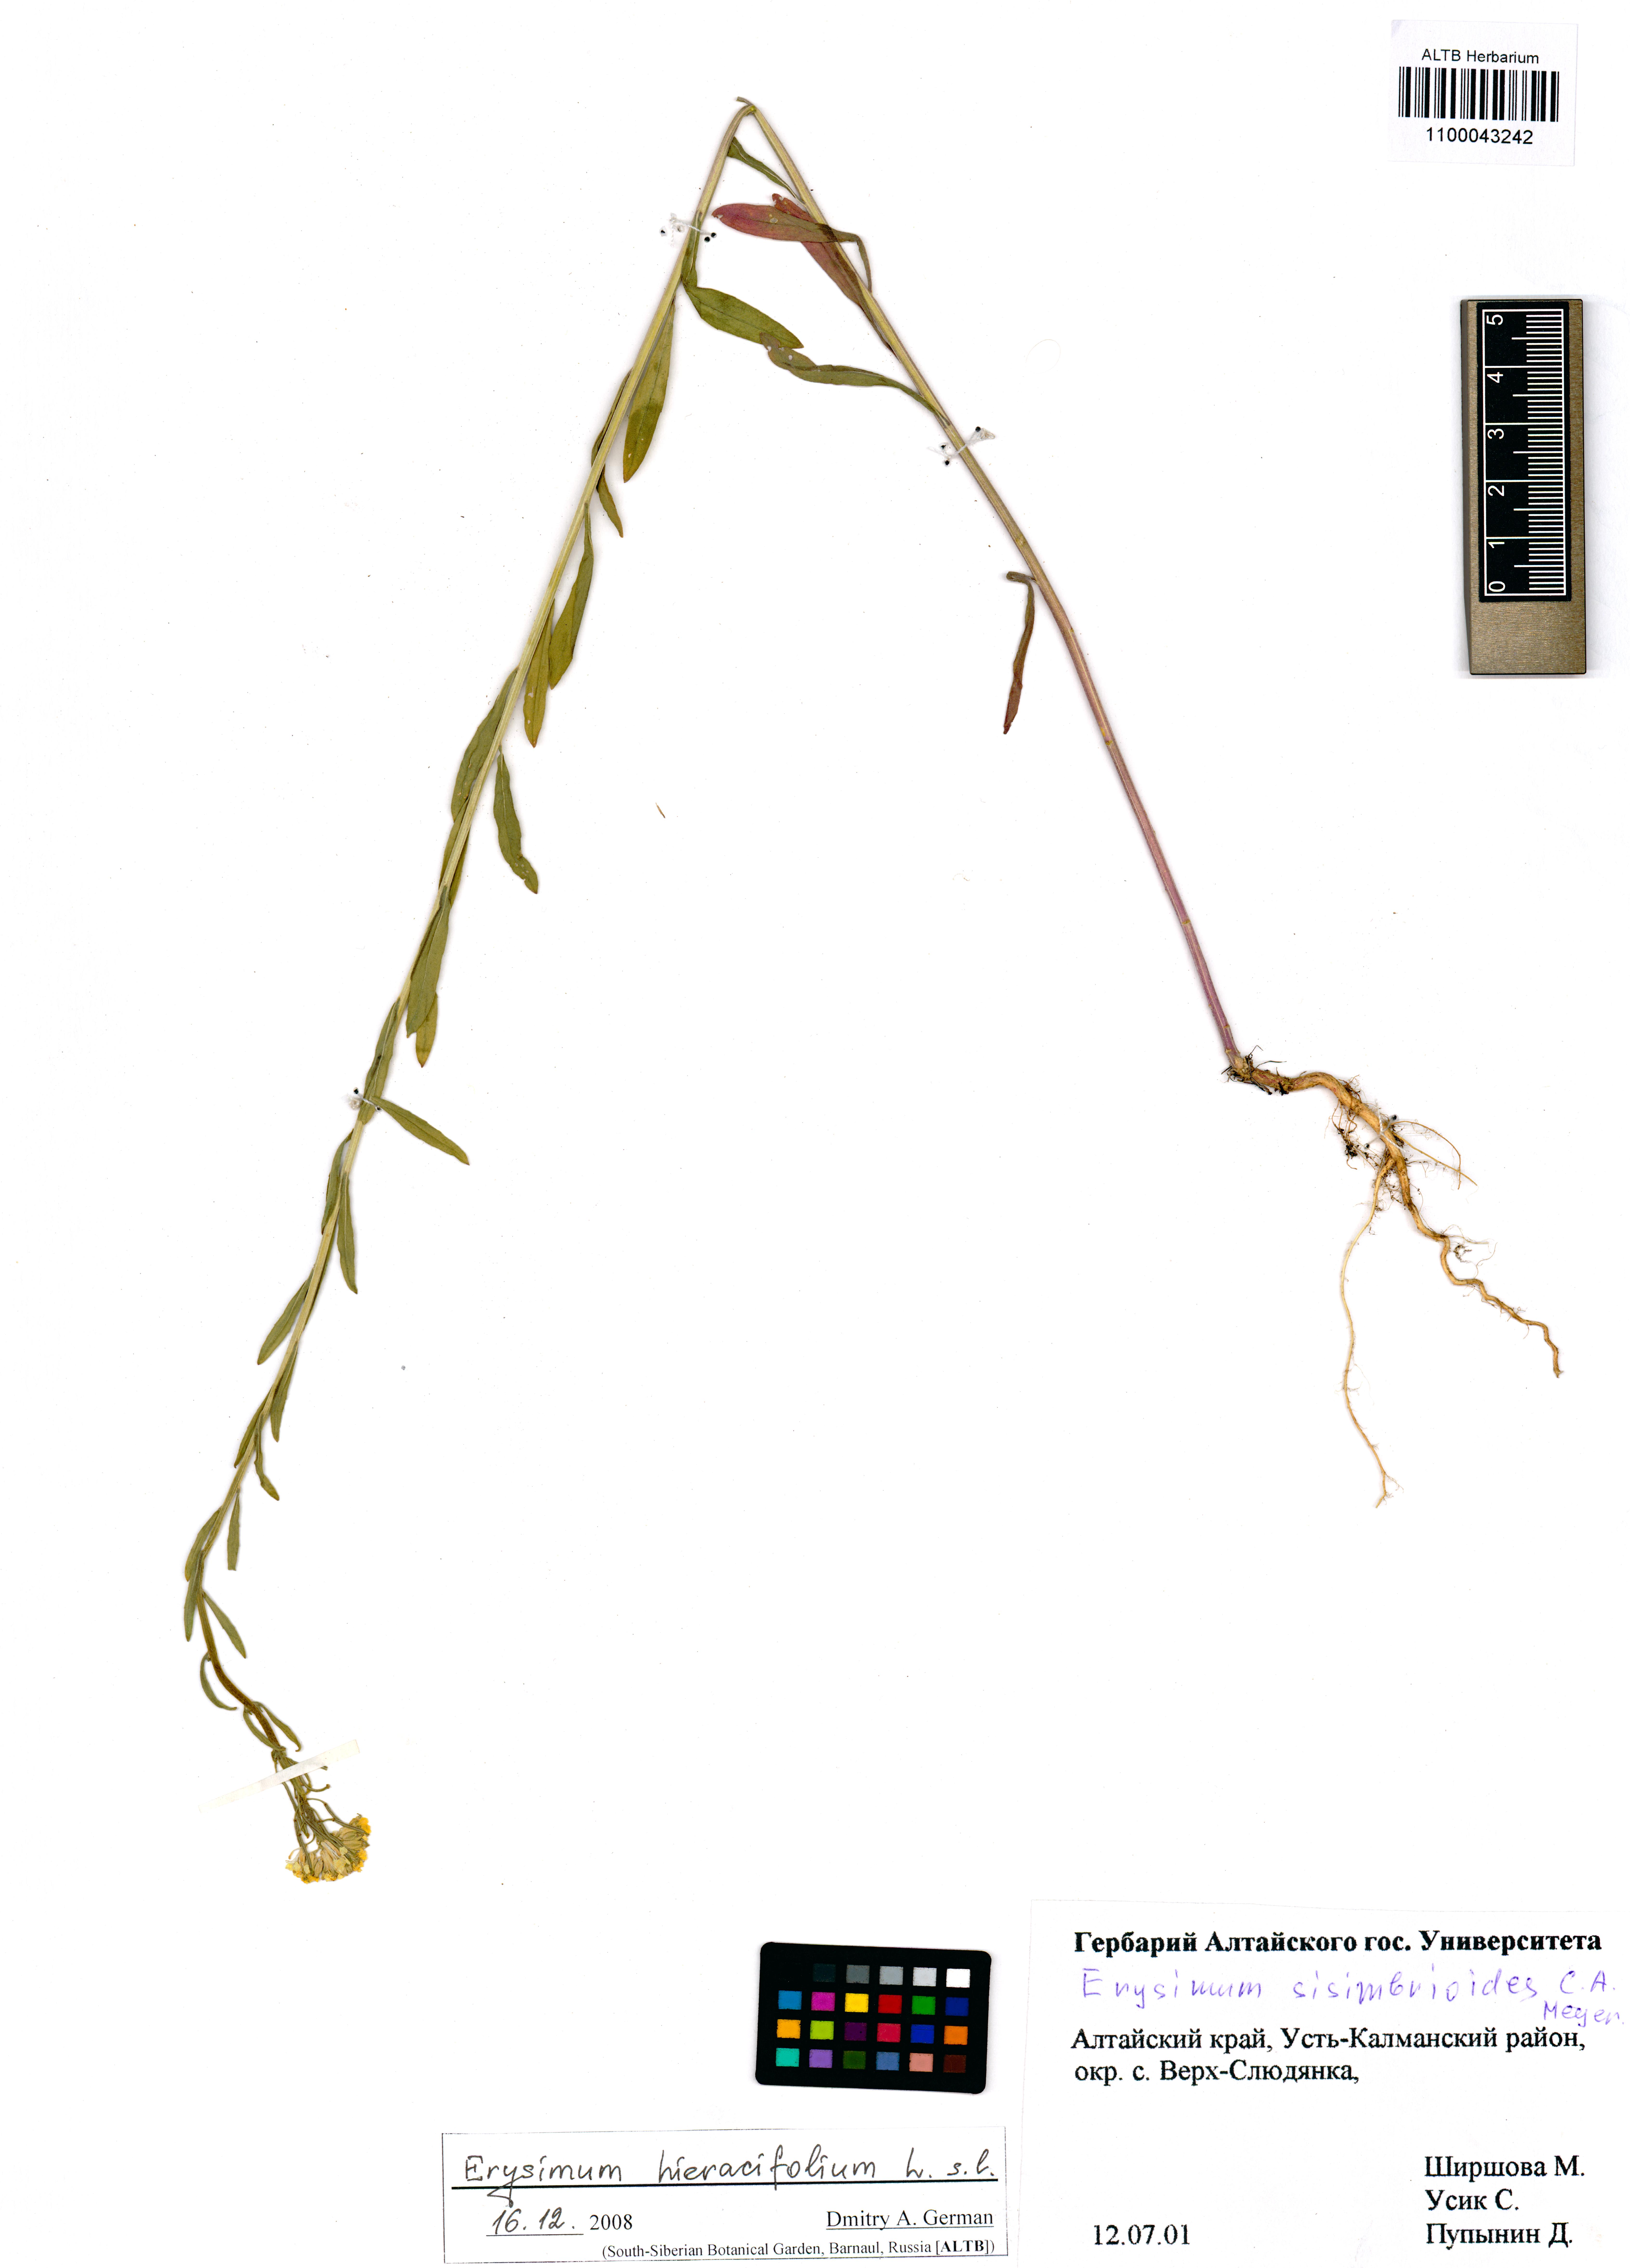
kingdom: Plantae
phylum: Tracheophyta
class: Magnoliopsida
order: Brassicales
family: Brassicaceae
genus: Erysimum
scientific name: Erysimum hieraciifolium
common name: European wallflower
